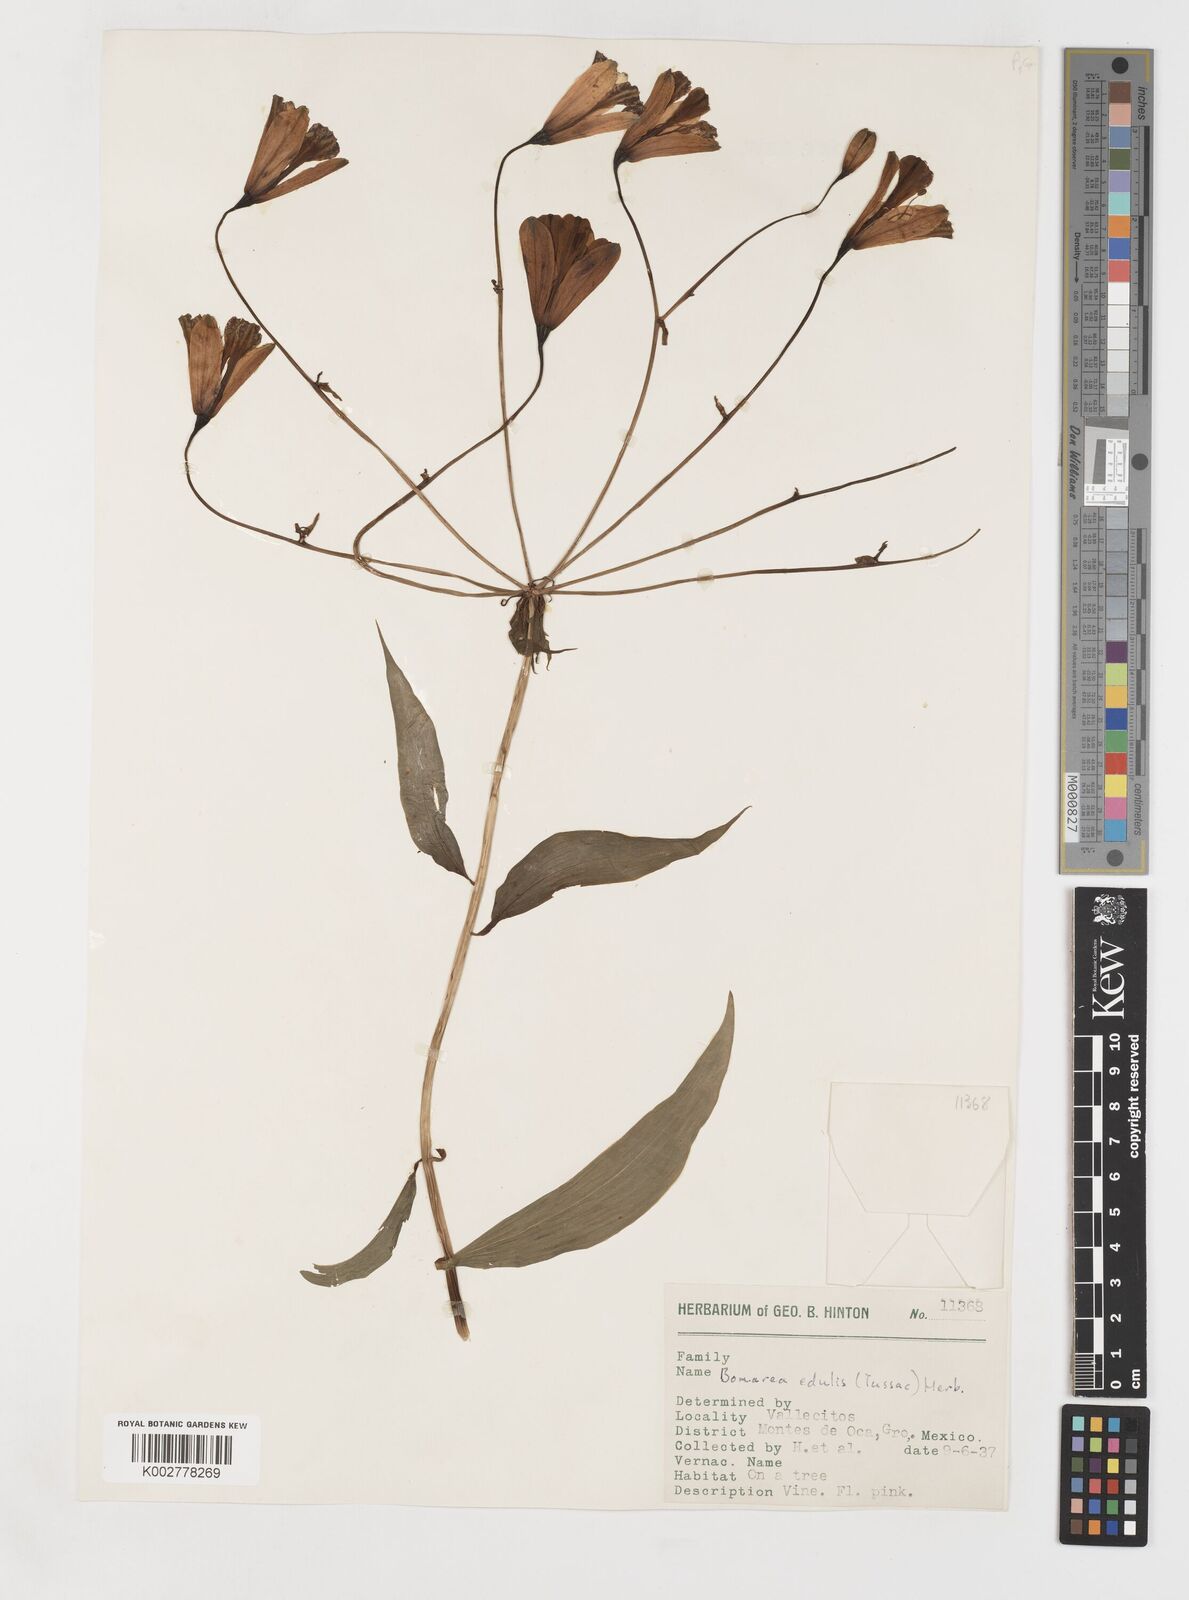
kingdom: Plantae
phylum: Tracheophyta
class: Liliopsida
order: Liliales
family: Alstroemeriaceae
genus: Bomarea
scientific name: Bomarea edulis
